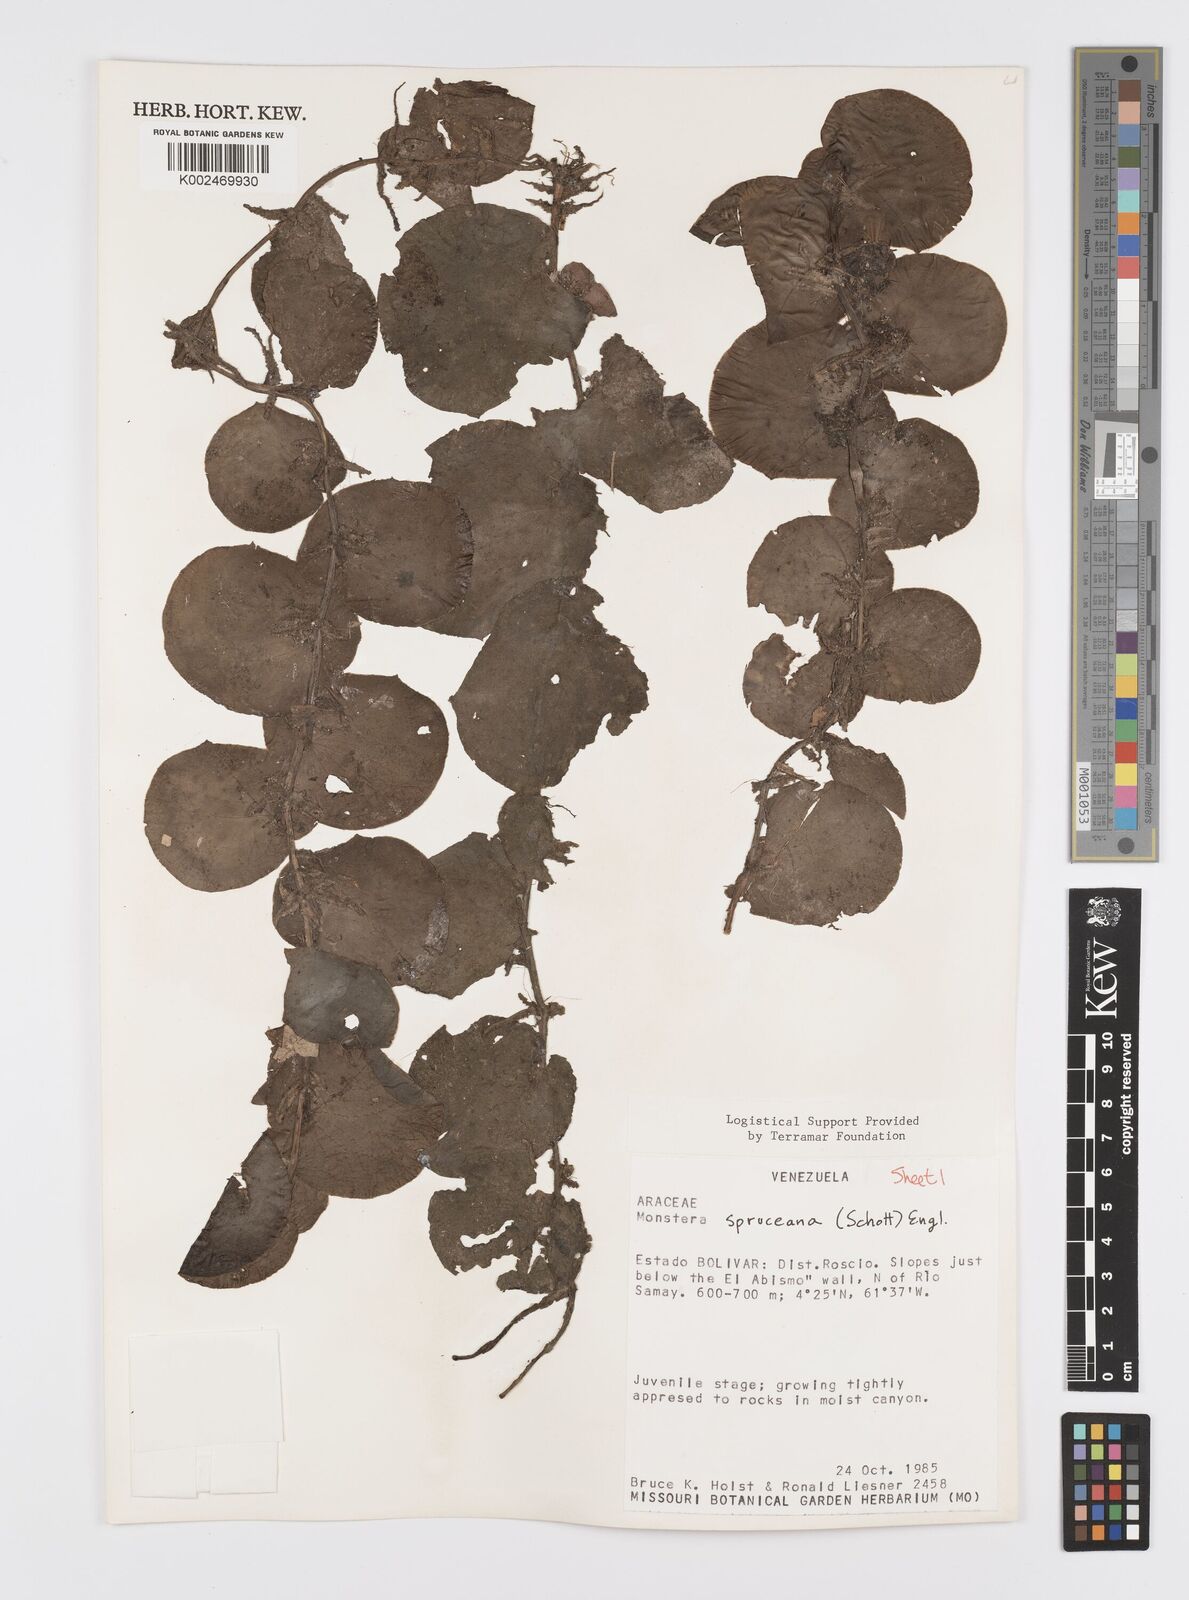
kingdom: Plantae
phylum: Tracheophyta
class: Liliopsida
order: Alismatales
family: Araceae
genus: Monstera
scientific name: Monstera spruceana
